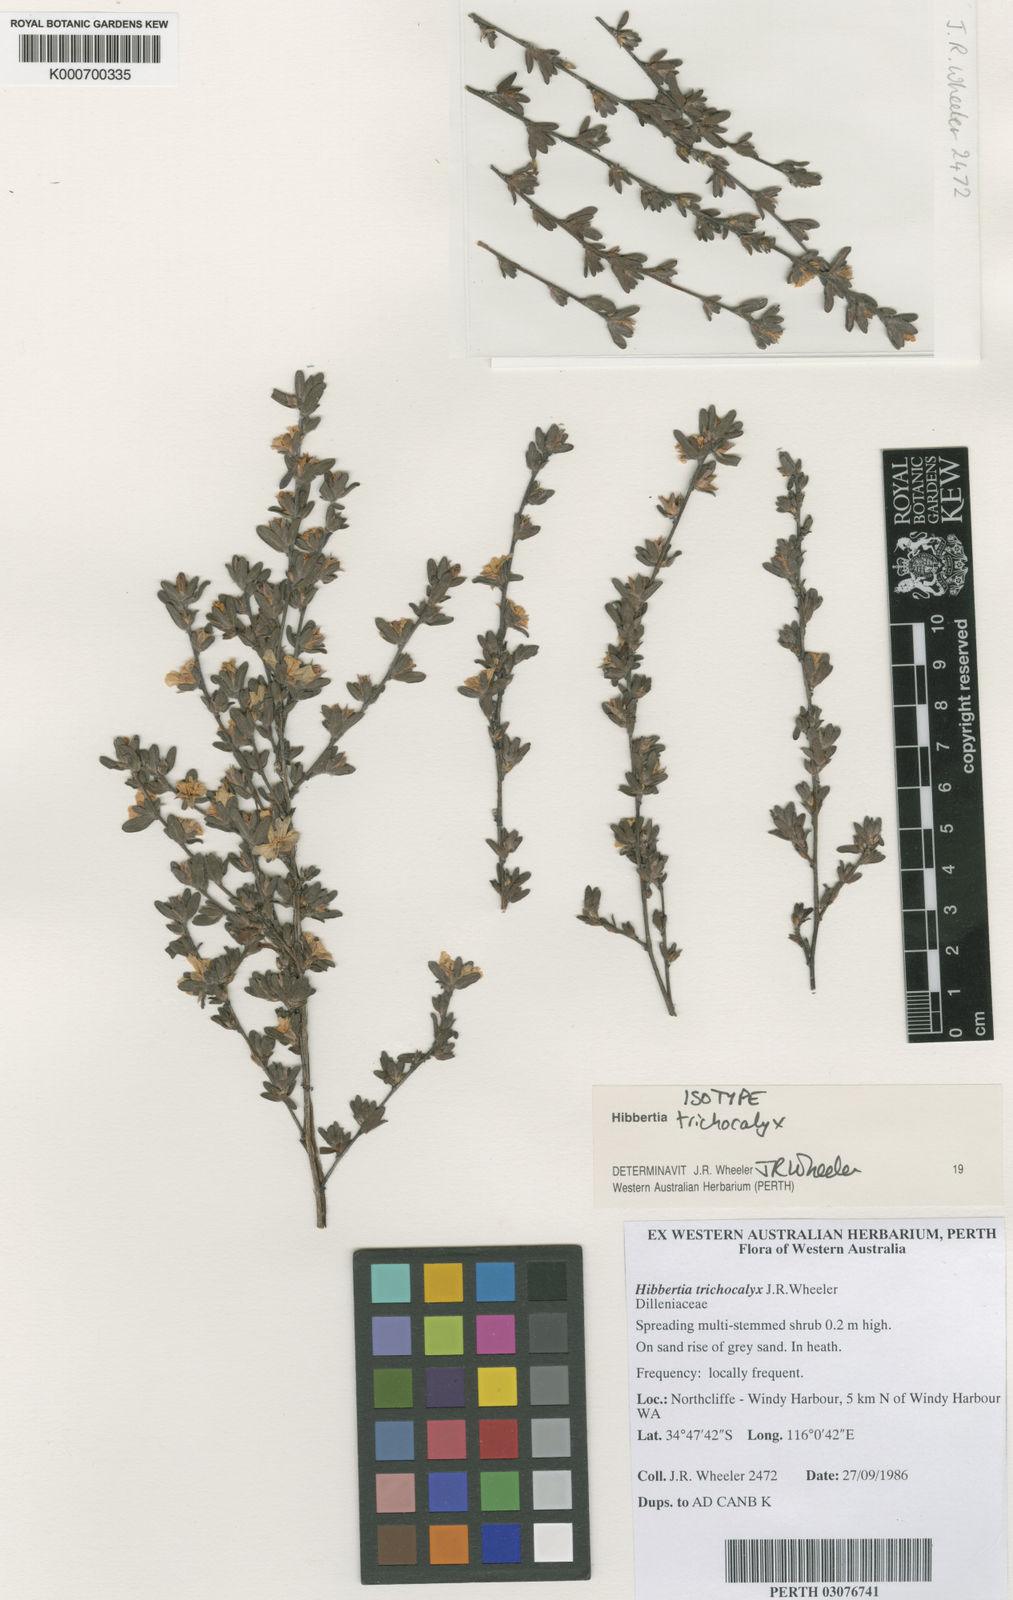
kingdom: Plantae
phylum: Tracheophyta
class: Magnoliopsida
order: Dilleniales
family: Dilleniaceae
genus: Hibbertia
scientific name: Hibbertia trichocalyx
